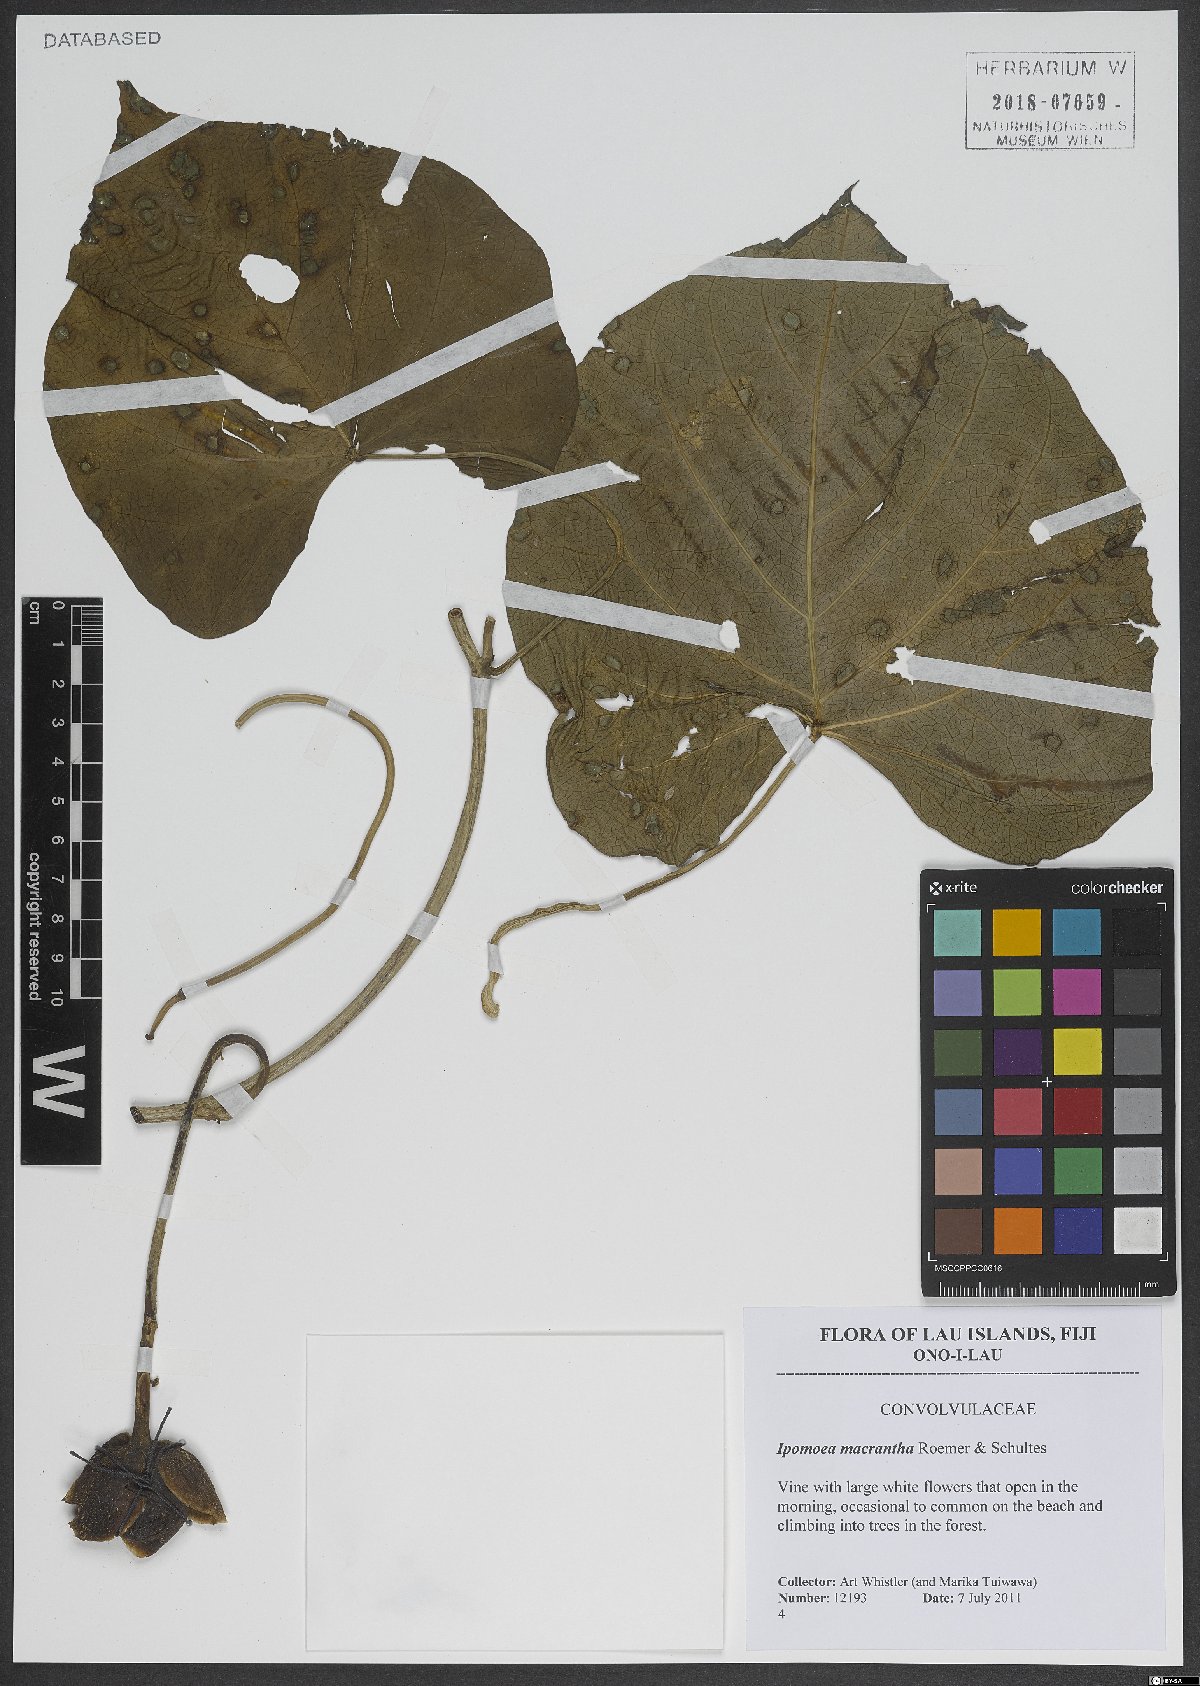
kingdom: Plantae
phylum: Tracheophyta
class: Magnoliopsida
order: Solanales
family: Convolvulaceae
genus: Ipomoea
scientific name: Ipomoea violacea
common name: Beach moonflower
